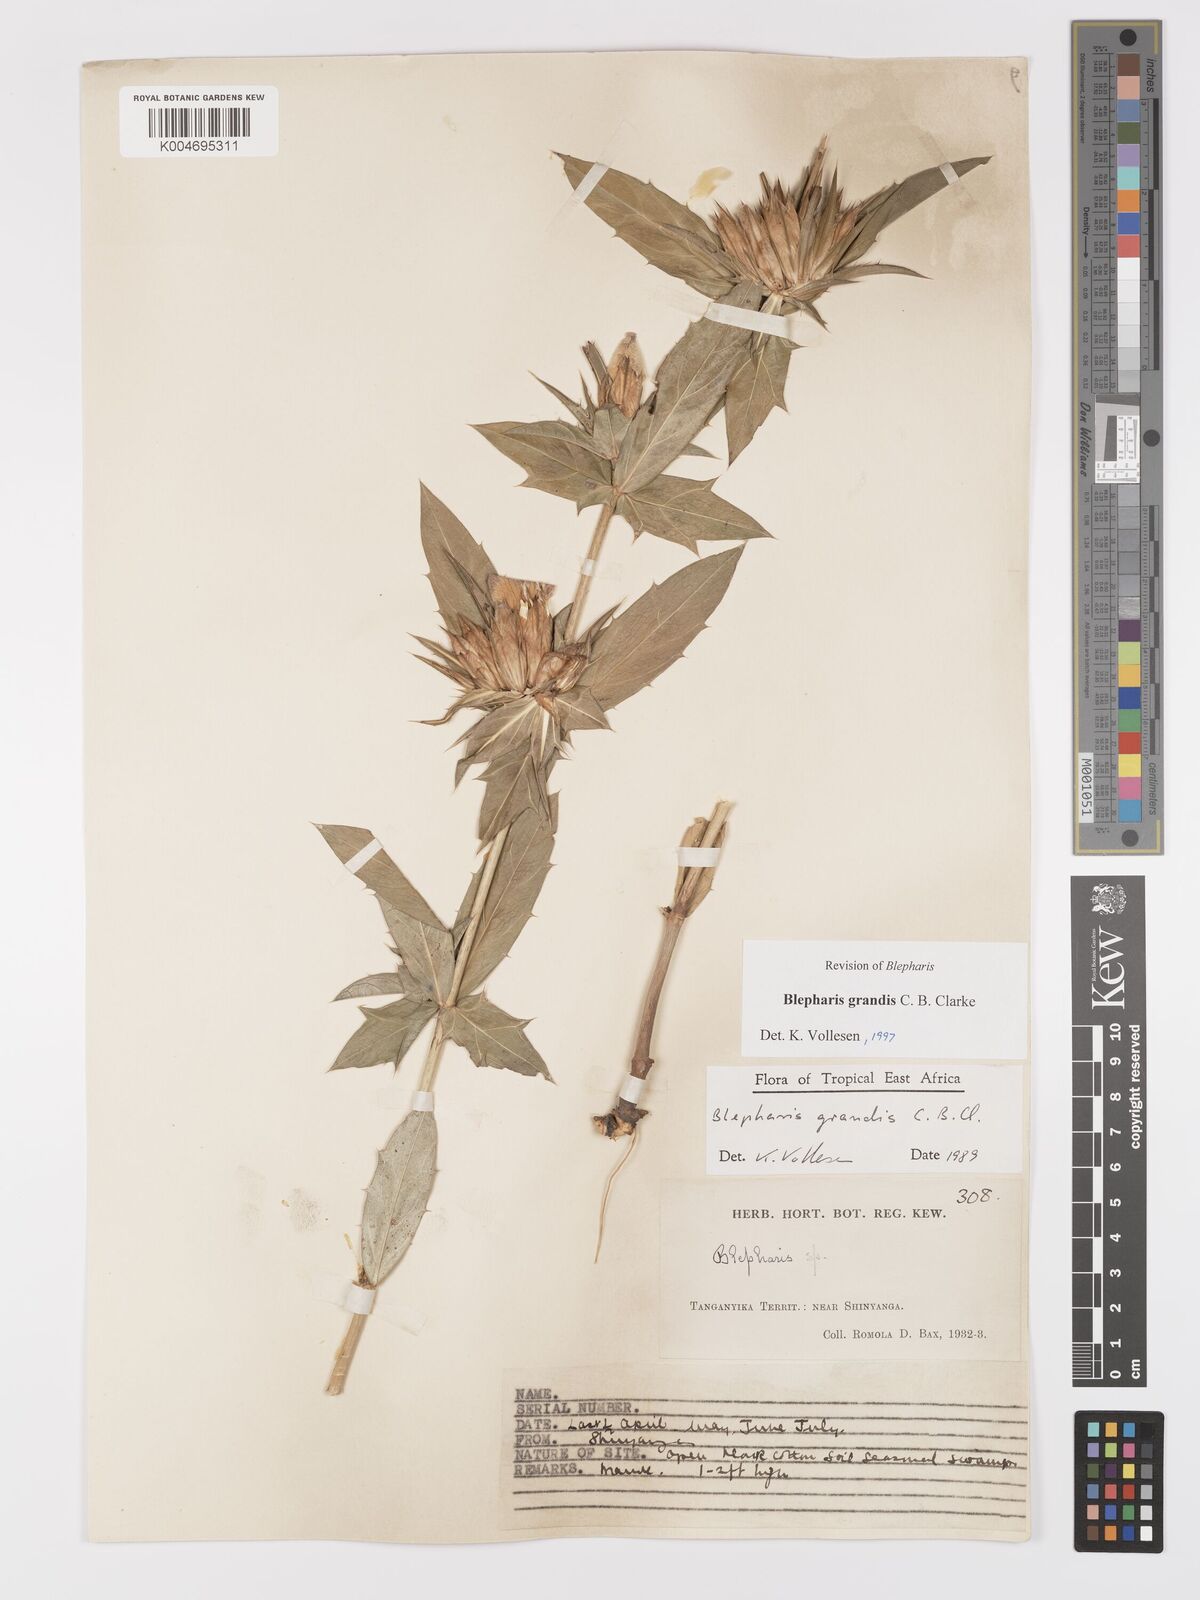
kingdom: Plantae
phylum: Tracheophyta
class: Magnoliopsida
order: Lamiales
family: Acanthaceae
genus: Blepharis
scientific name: Blepharis grandis
